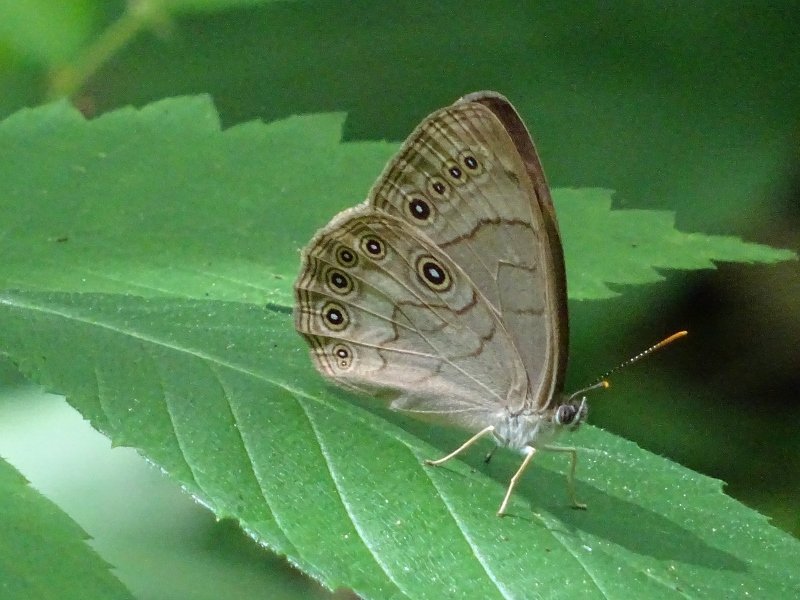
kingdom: Animalia
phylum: Arthropoda
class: Insecta
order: Lepidoptera
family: Nymphalidae
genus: Lethe
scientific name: Lethe eurydice
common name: Appalachian Eyed Brown
